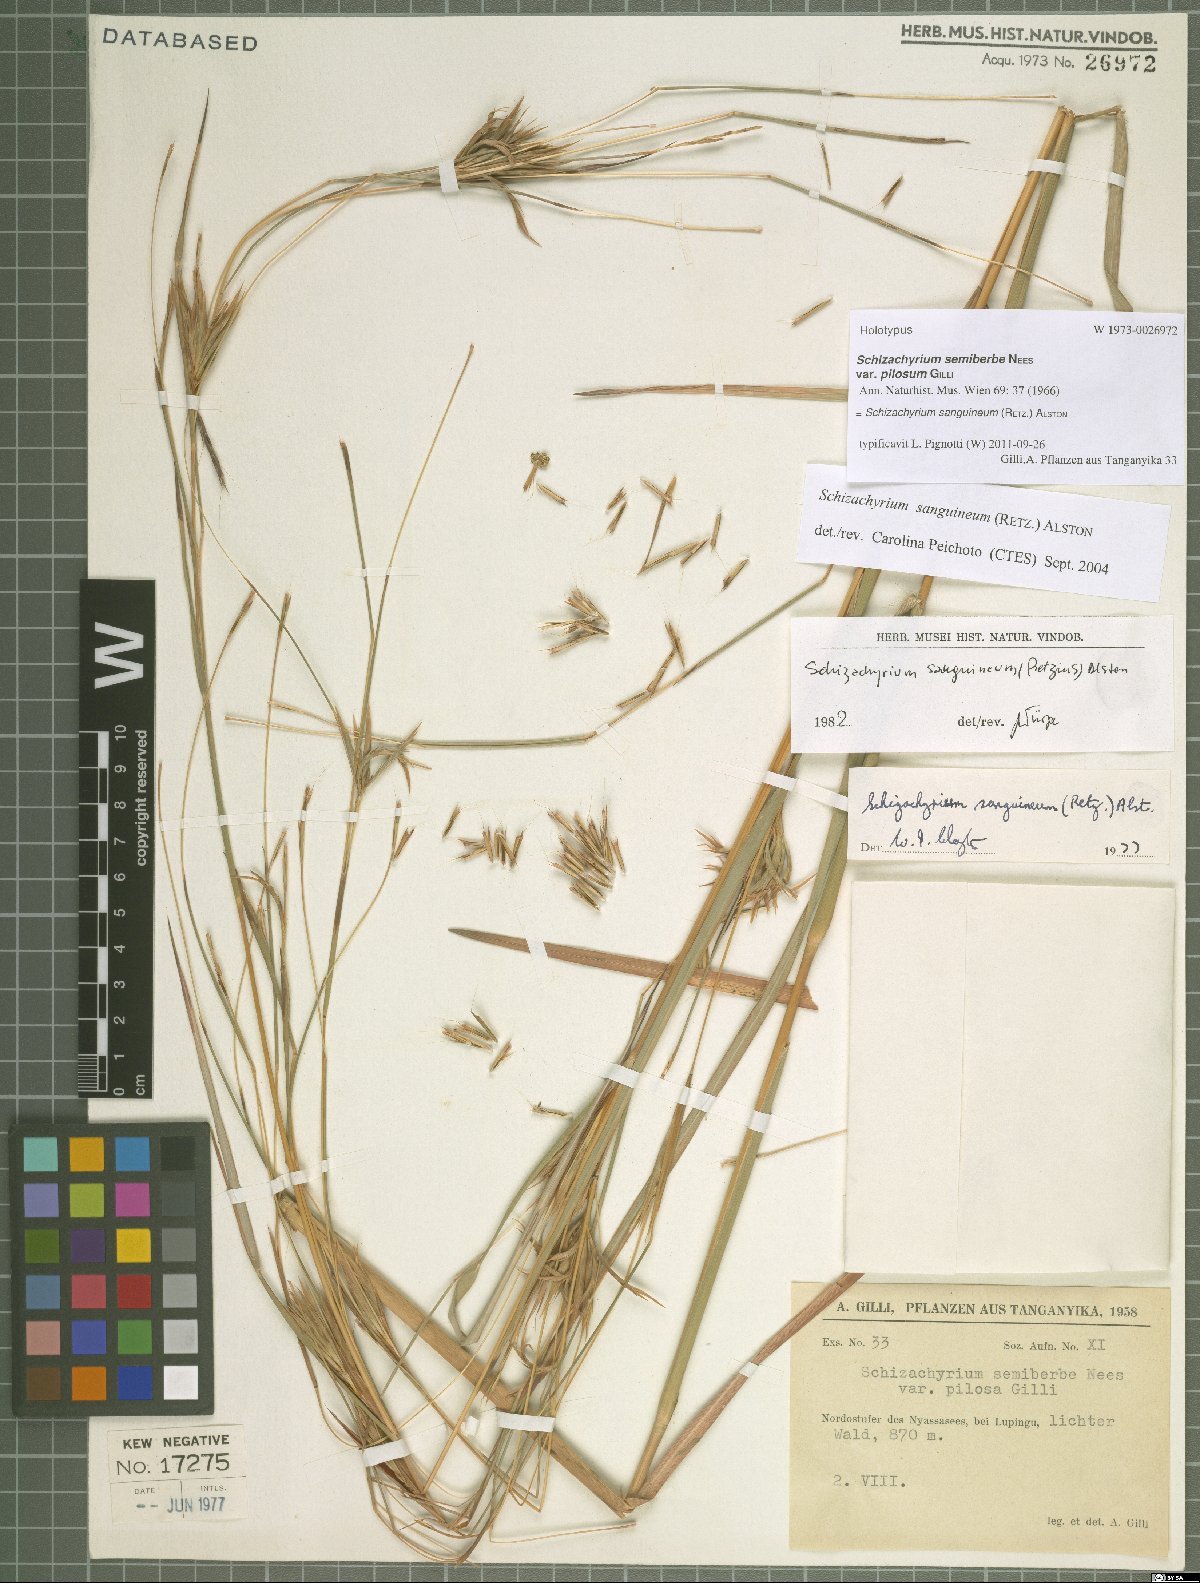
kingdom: Plantae
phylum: Tracheophyta
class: Liliopsida
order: Poales
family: Poaceae
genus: Schizachyrium
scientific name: Schizachyrium sanguineum
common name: Crimson bluestem
